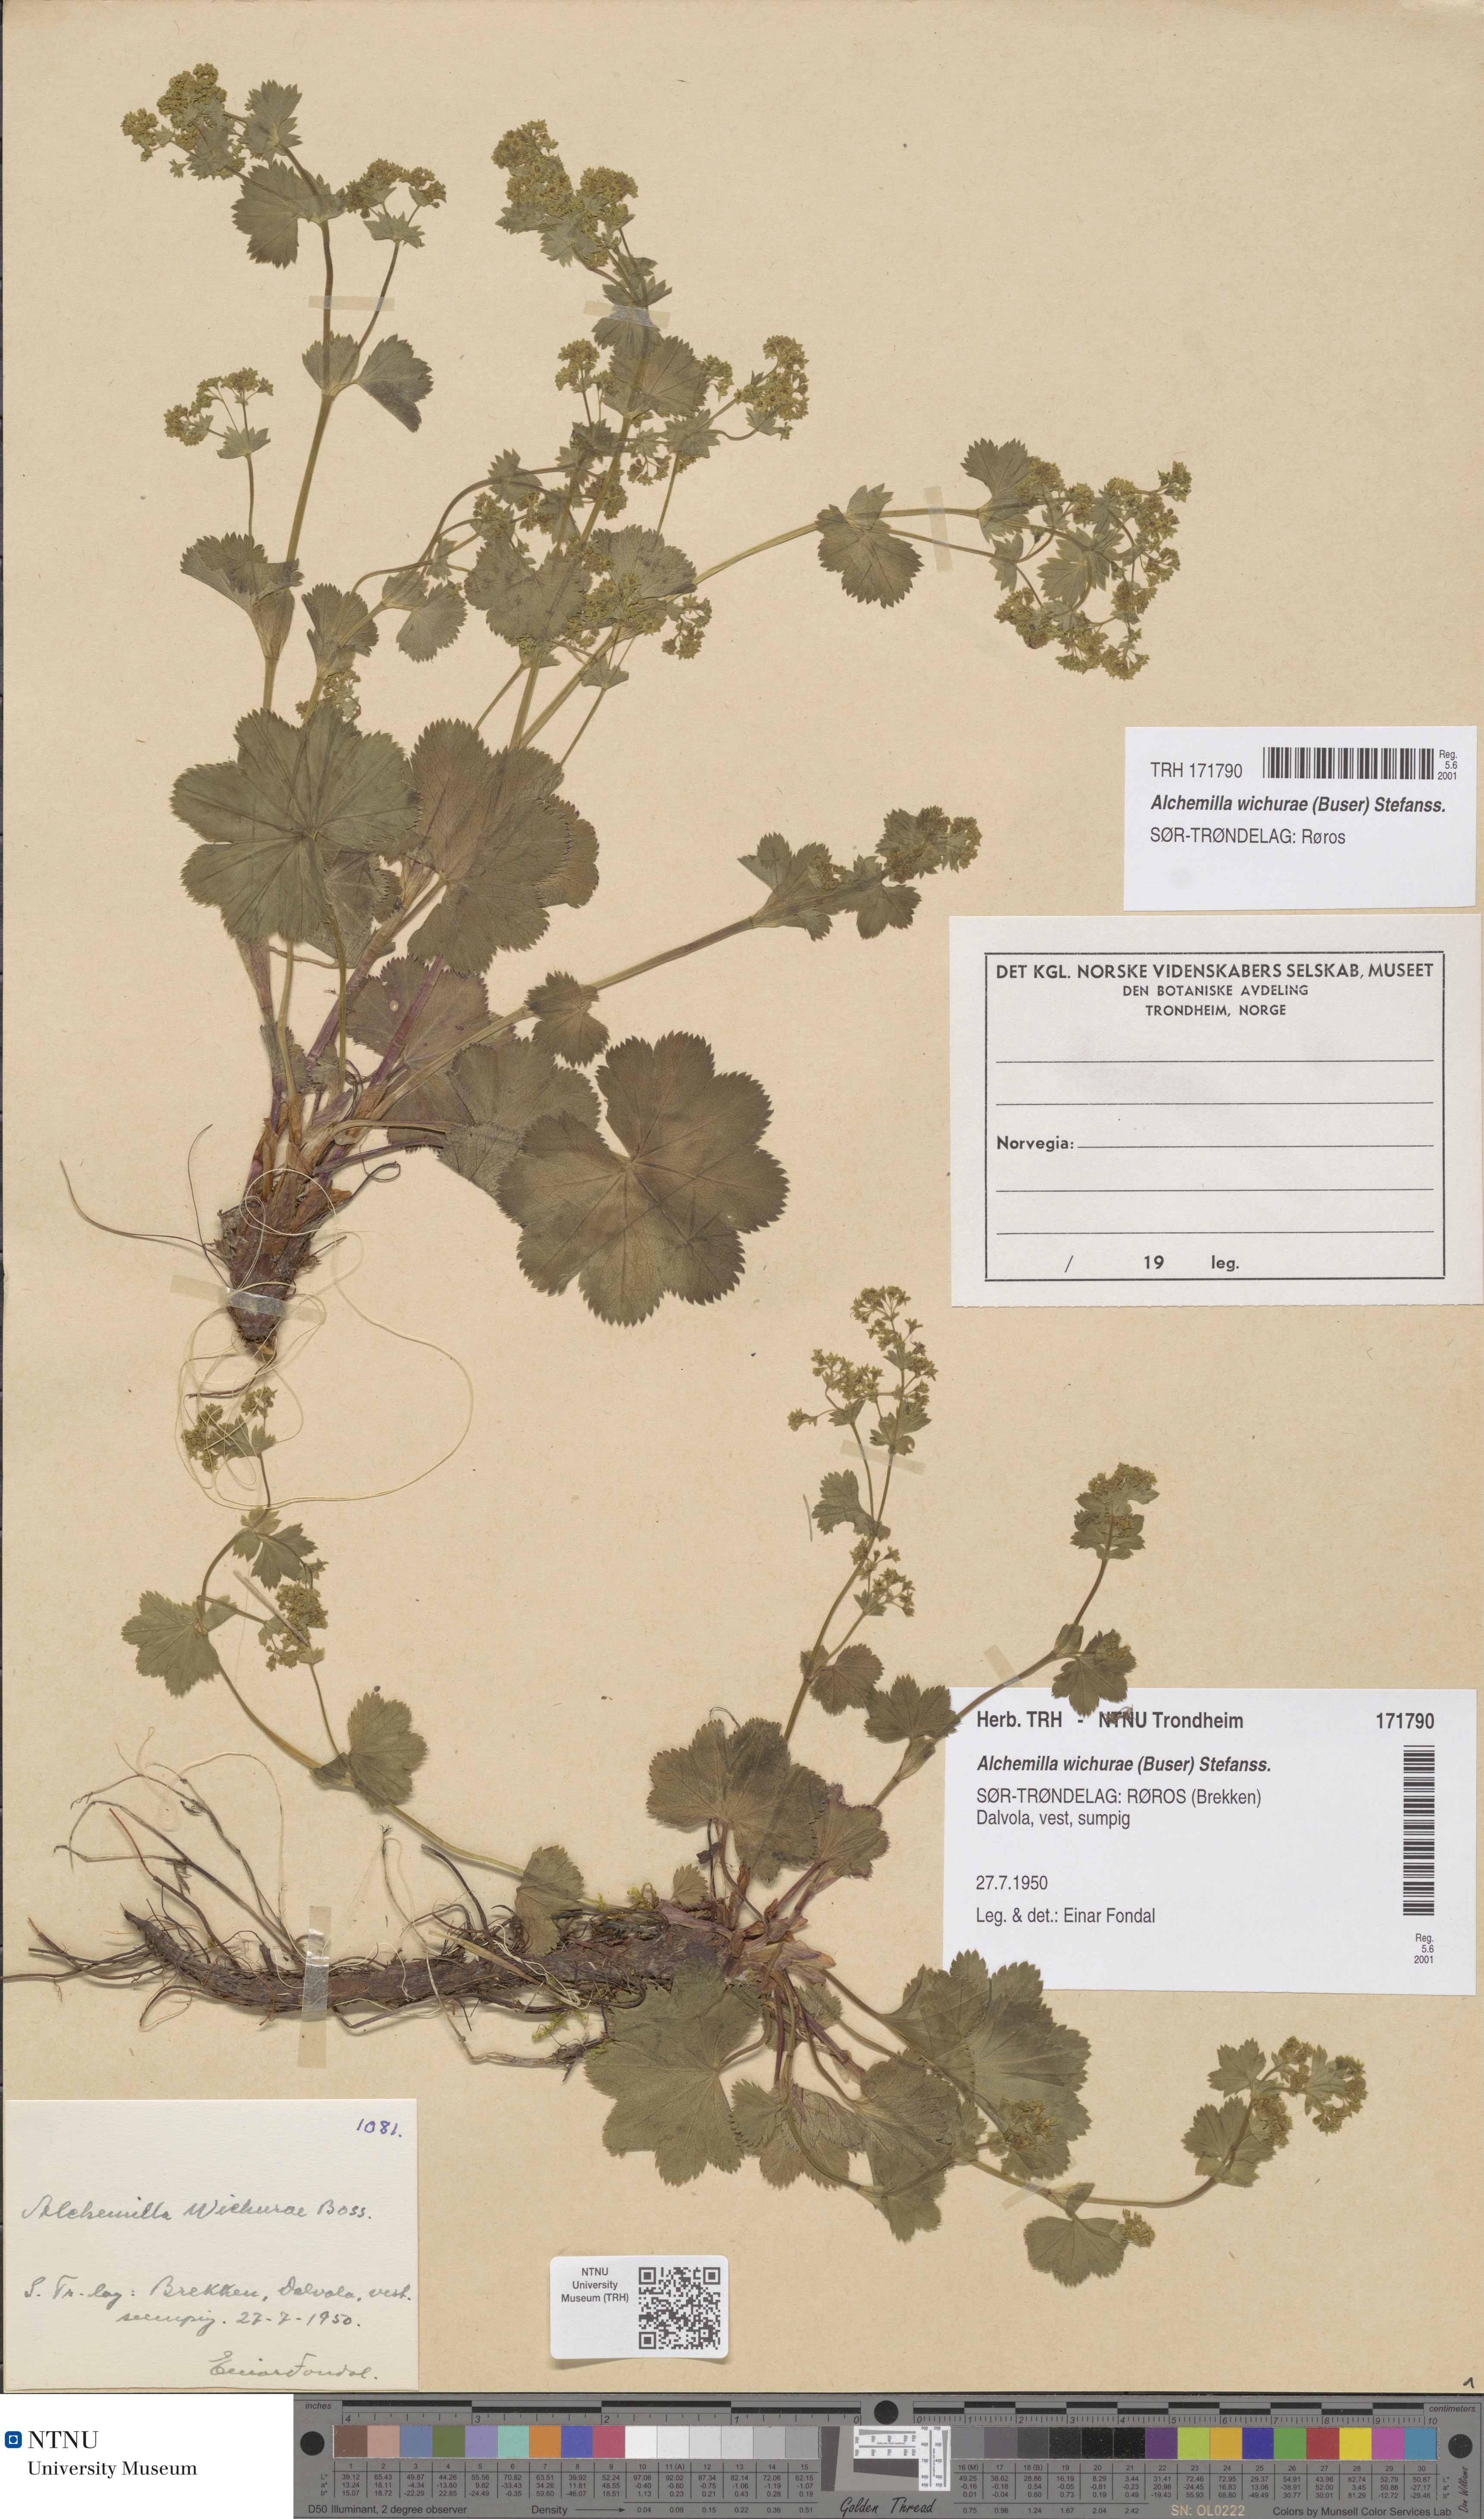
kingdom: Plantae
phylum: Tracheophyta
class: Magnoliopsida
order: Rosales
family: Rosaceae
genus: Alchemilla
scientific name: Alchemilla wichurae
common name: Rock lady's mantle
